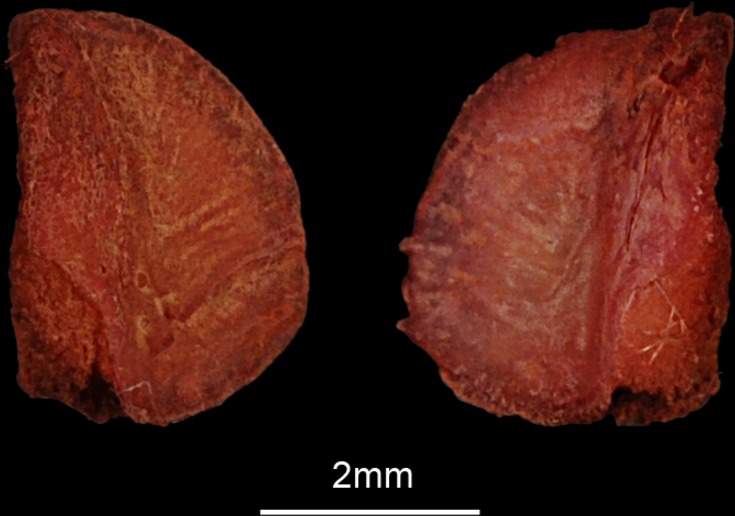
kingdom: Animalia
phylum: Chordata
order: Esociformes
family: Esocidae
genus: Esox
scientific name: Esox lucius
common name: Northern pike
